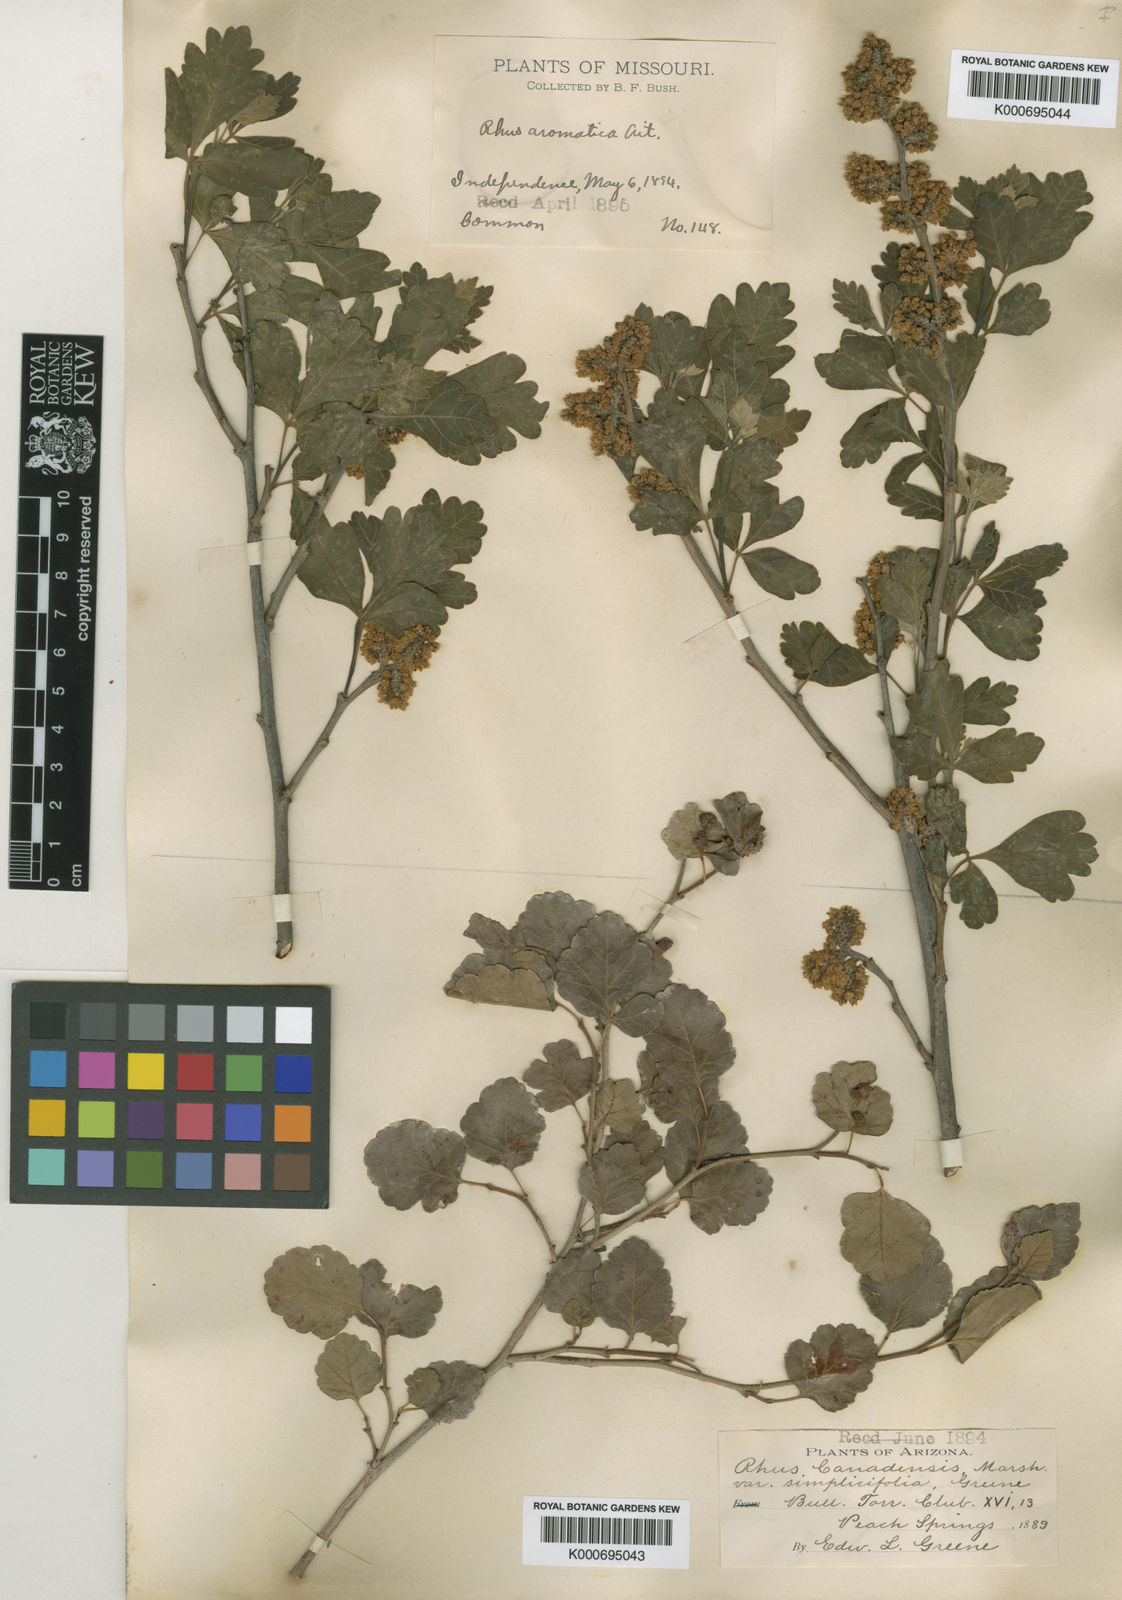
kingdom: Plantae
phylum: Tracheophyta
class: Magnoliopsida
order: Sapindales
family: Anacardiaceae
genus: Rhus
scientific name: Rhus trilobata
